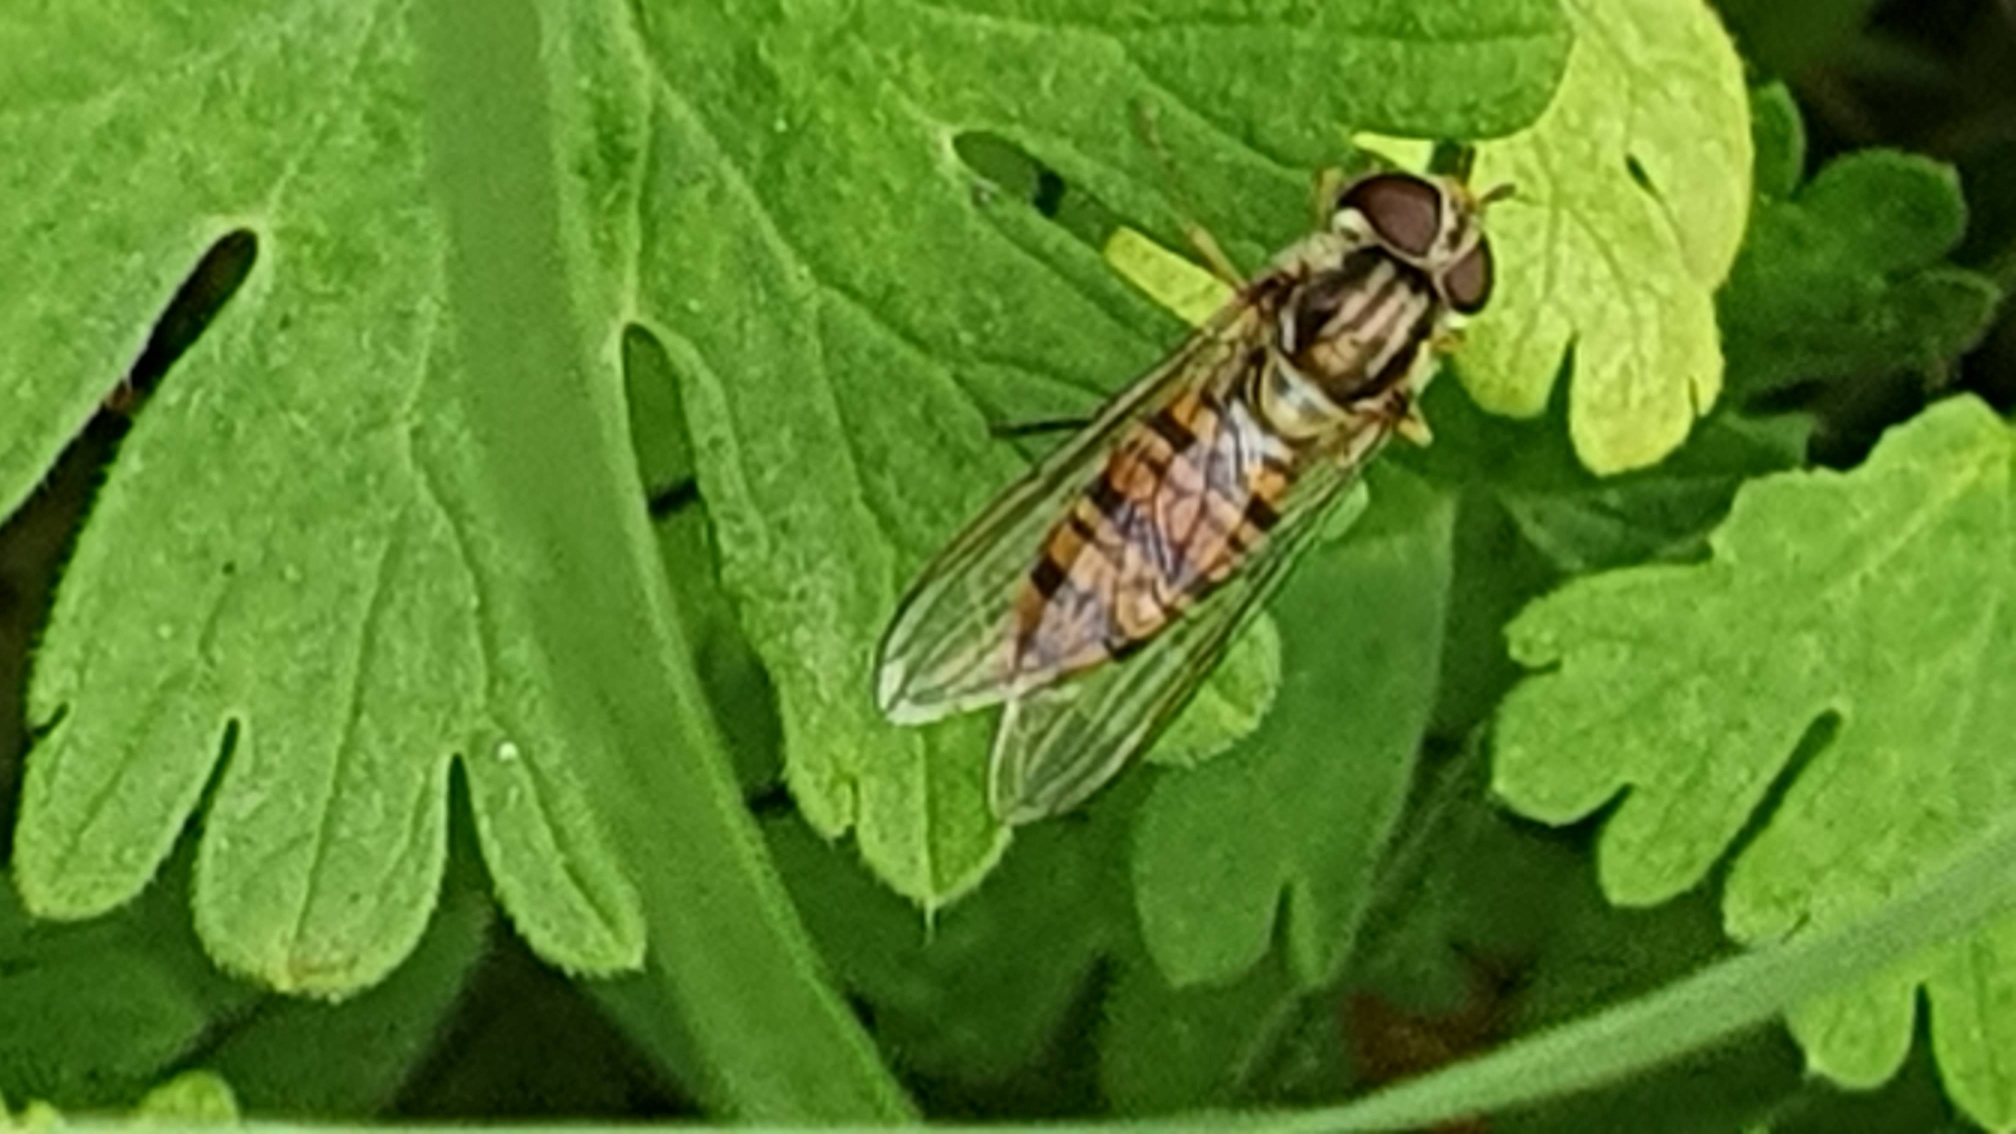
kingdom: Animalia
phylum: Arthropoda
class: Insecta
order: Diptera
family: Syrphidae
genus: Episyrphus
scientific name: Episyrphus balteatus
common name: Dobbeltbåndet svirreflue
